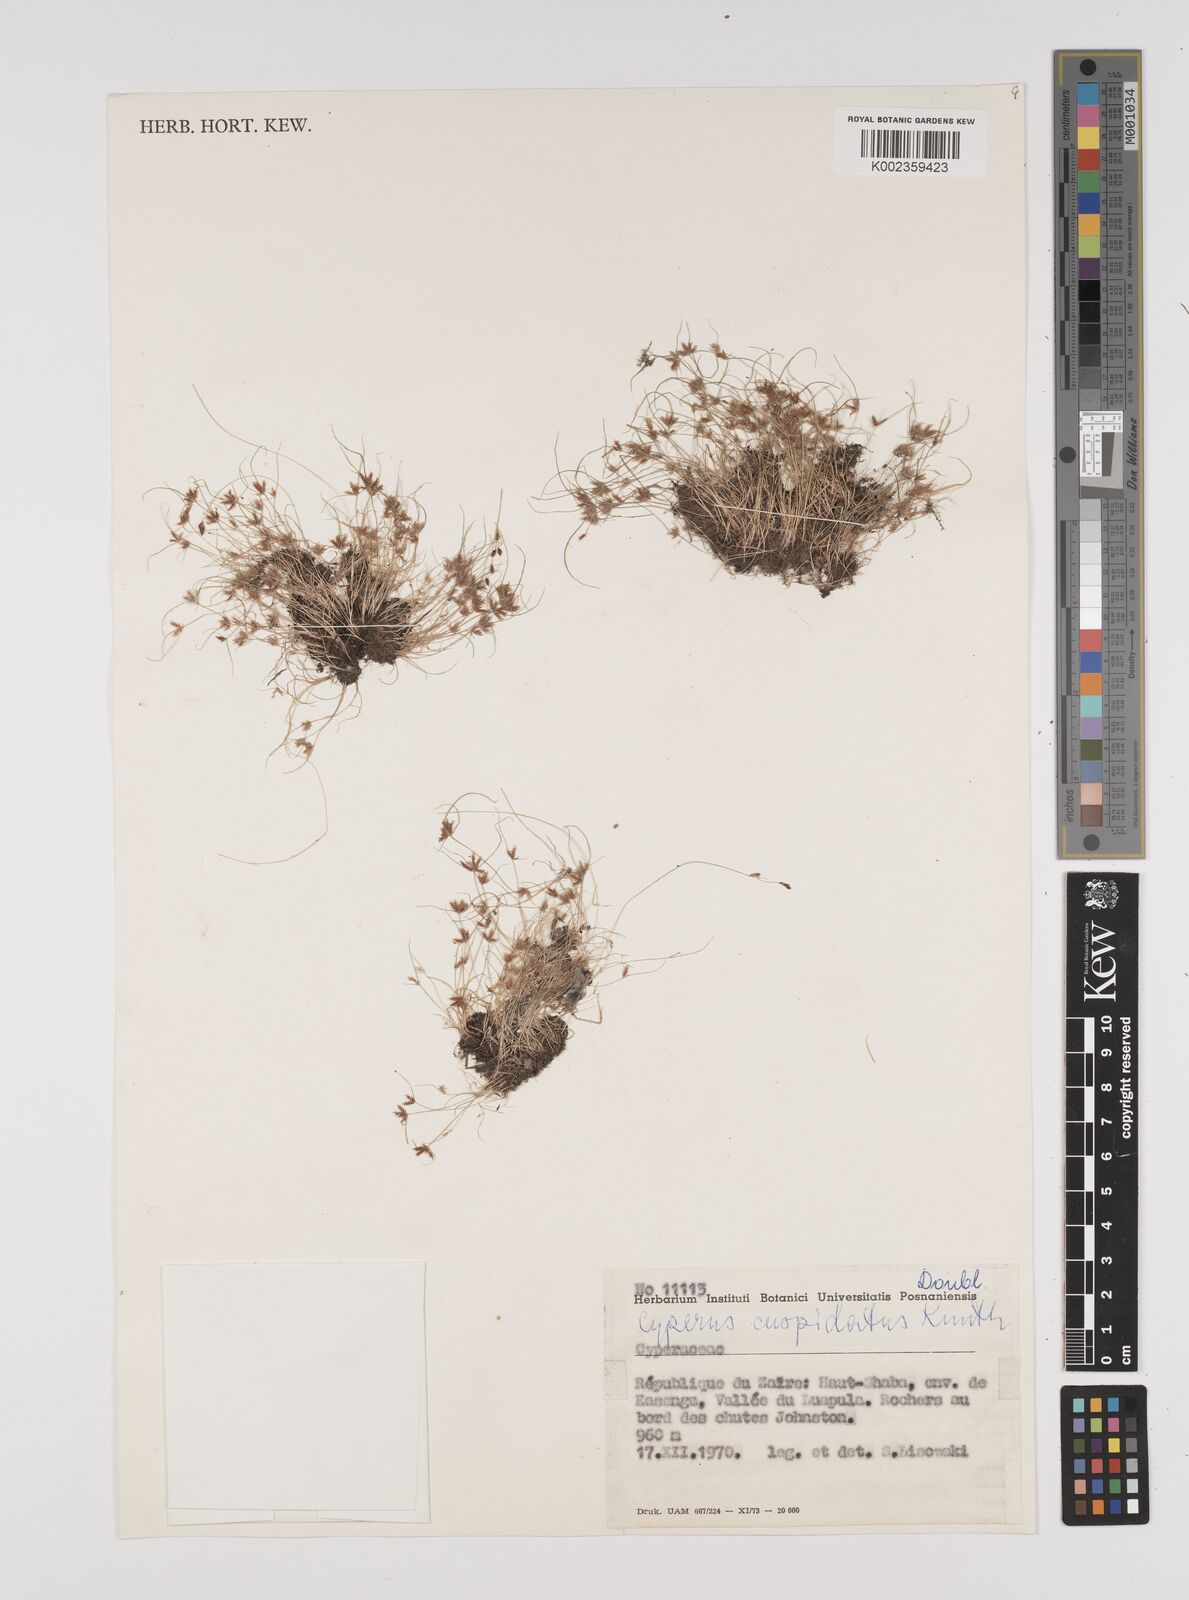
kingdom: Plantae
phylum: Tracheophyta
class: Liliopsida
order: Poales
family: Cyperaceae
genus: Cyperus
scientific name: Cyperus cuspidatus
